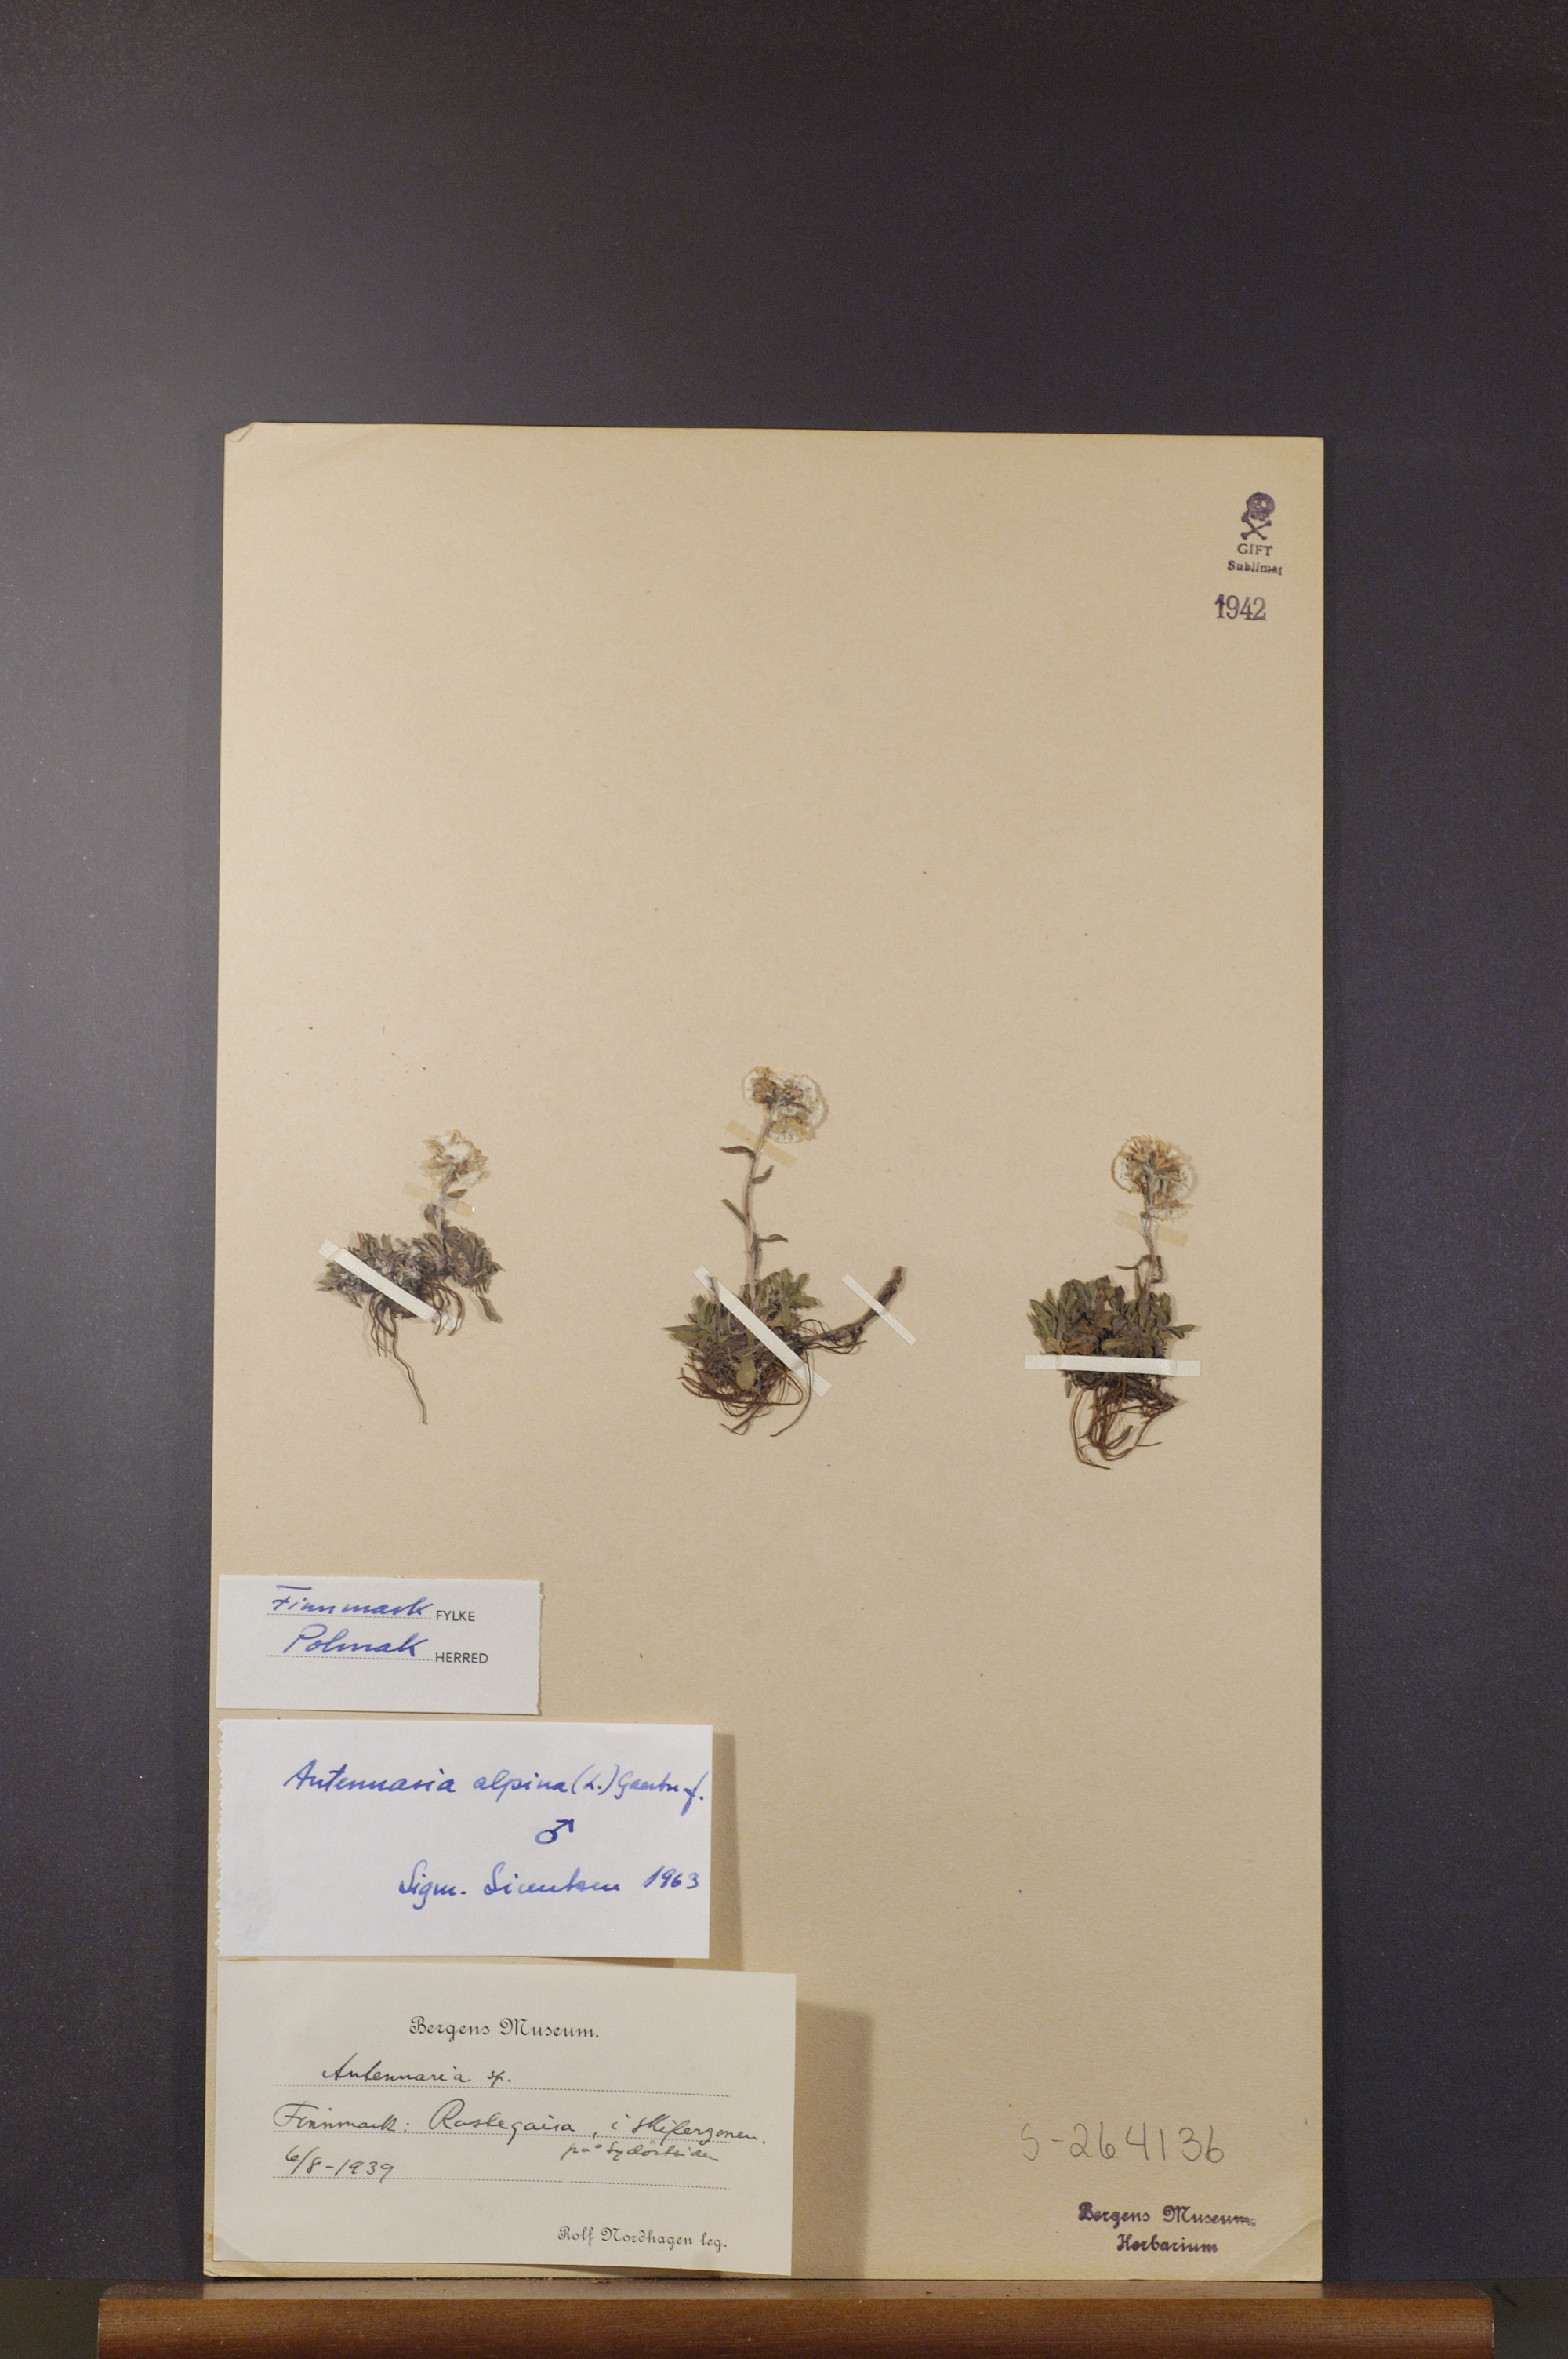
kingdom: Plantae
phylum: Tracheophyta
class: Magnoliopsida
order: Asterales
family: Asteraceae
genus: Antennaria
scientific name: Antennaria alpina
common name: Alpine pussytoes
